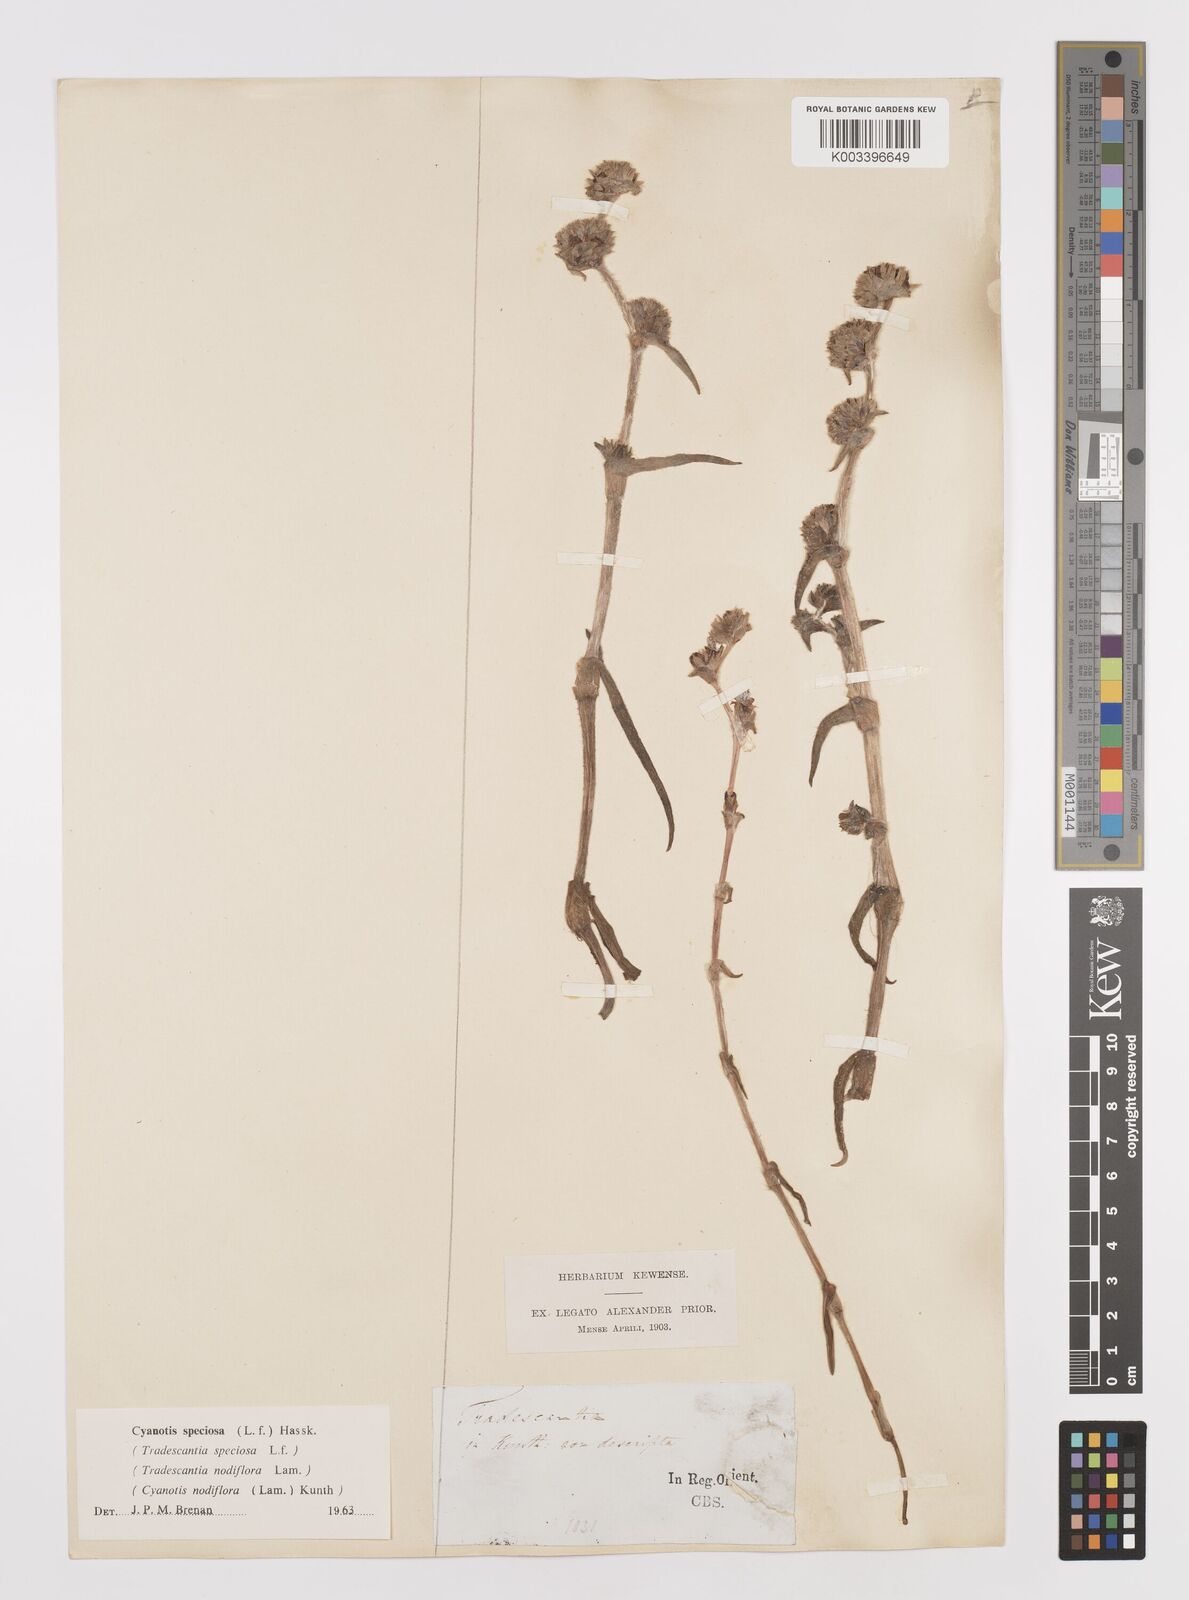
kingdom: Plantae
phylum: Tracheophyta
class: Liliopsida
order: Commelinales
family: Commelinaceae
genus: Cyanotis
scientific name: Cyanotis speciosa
